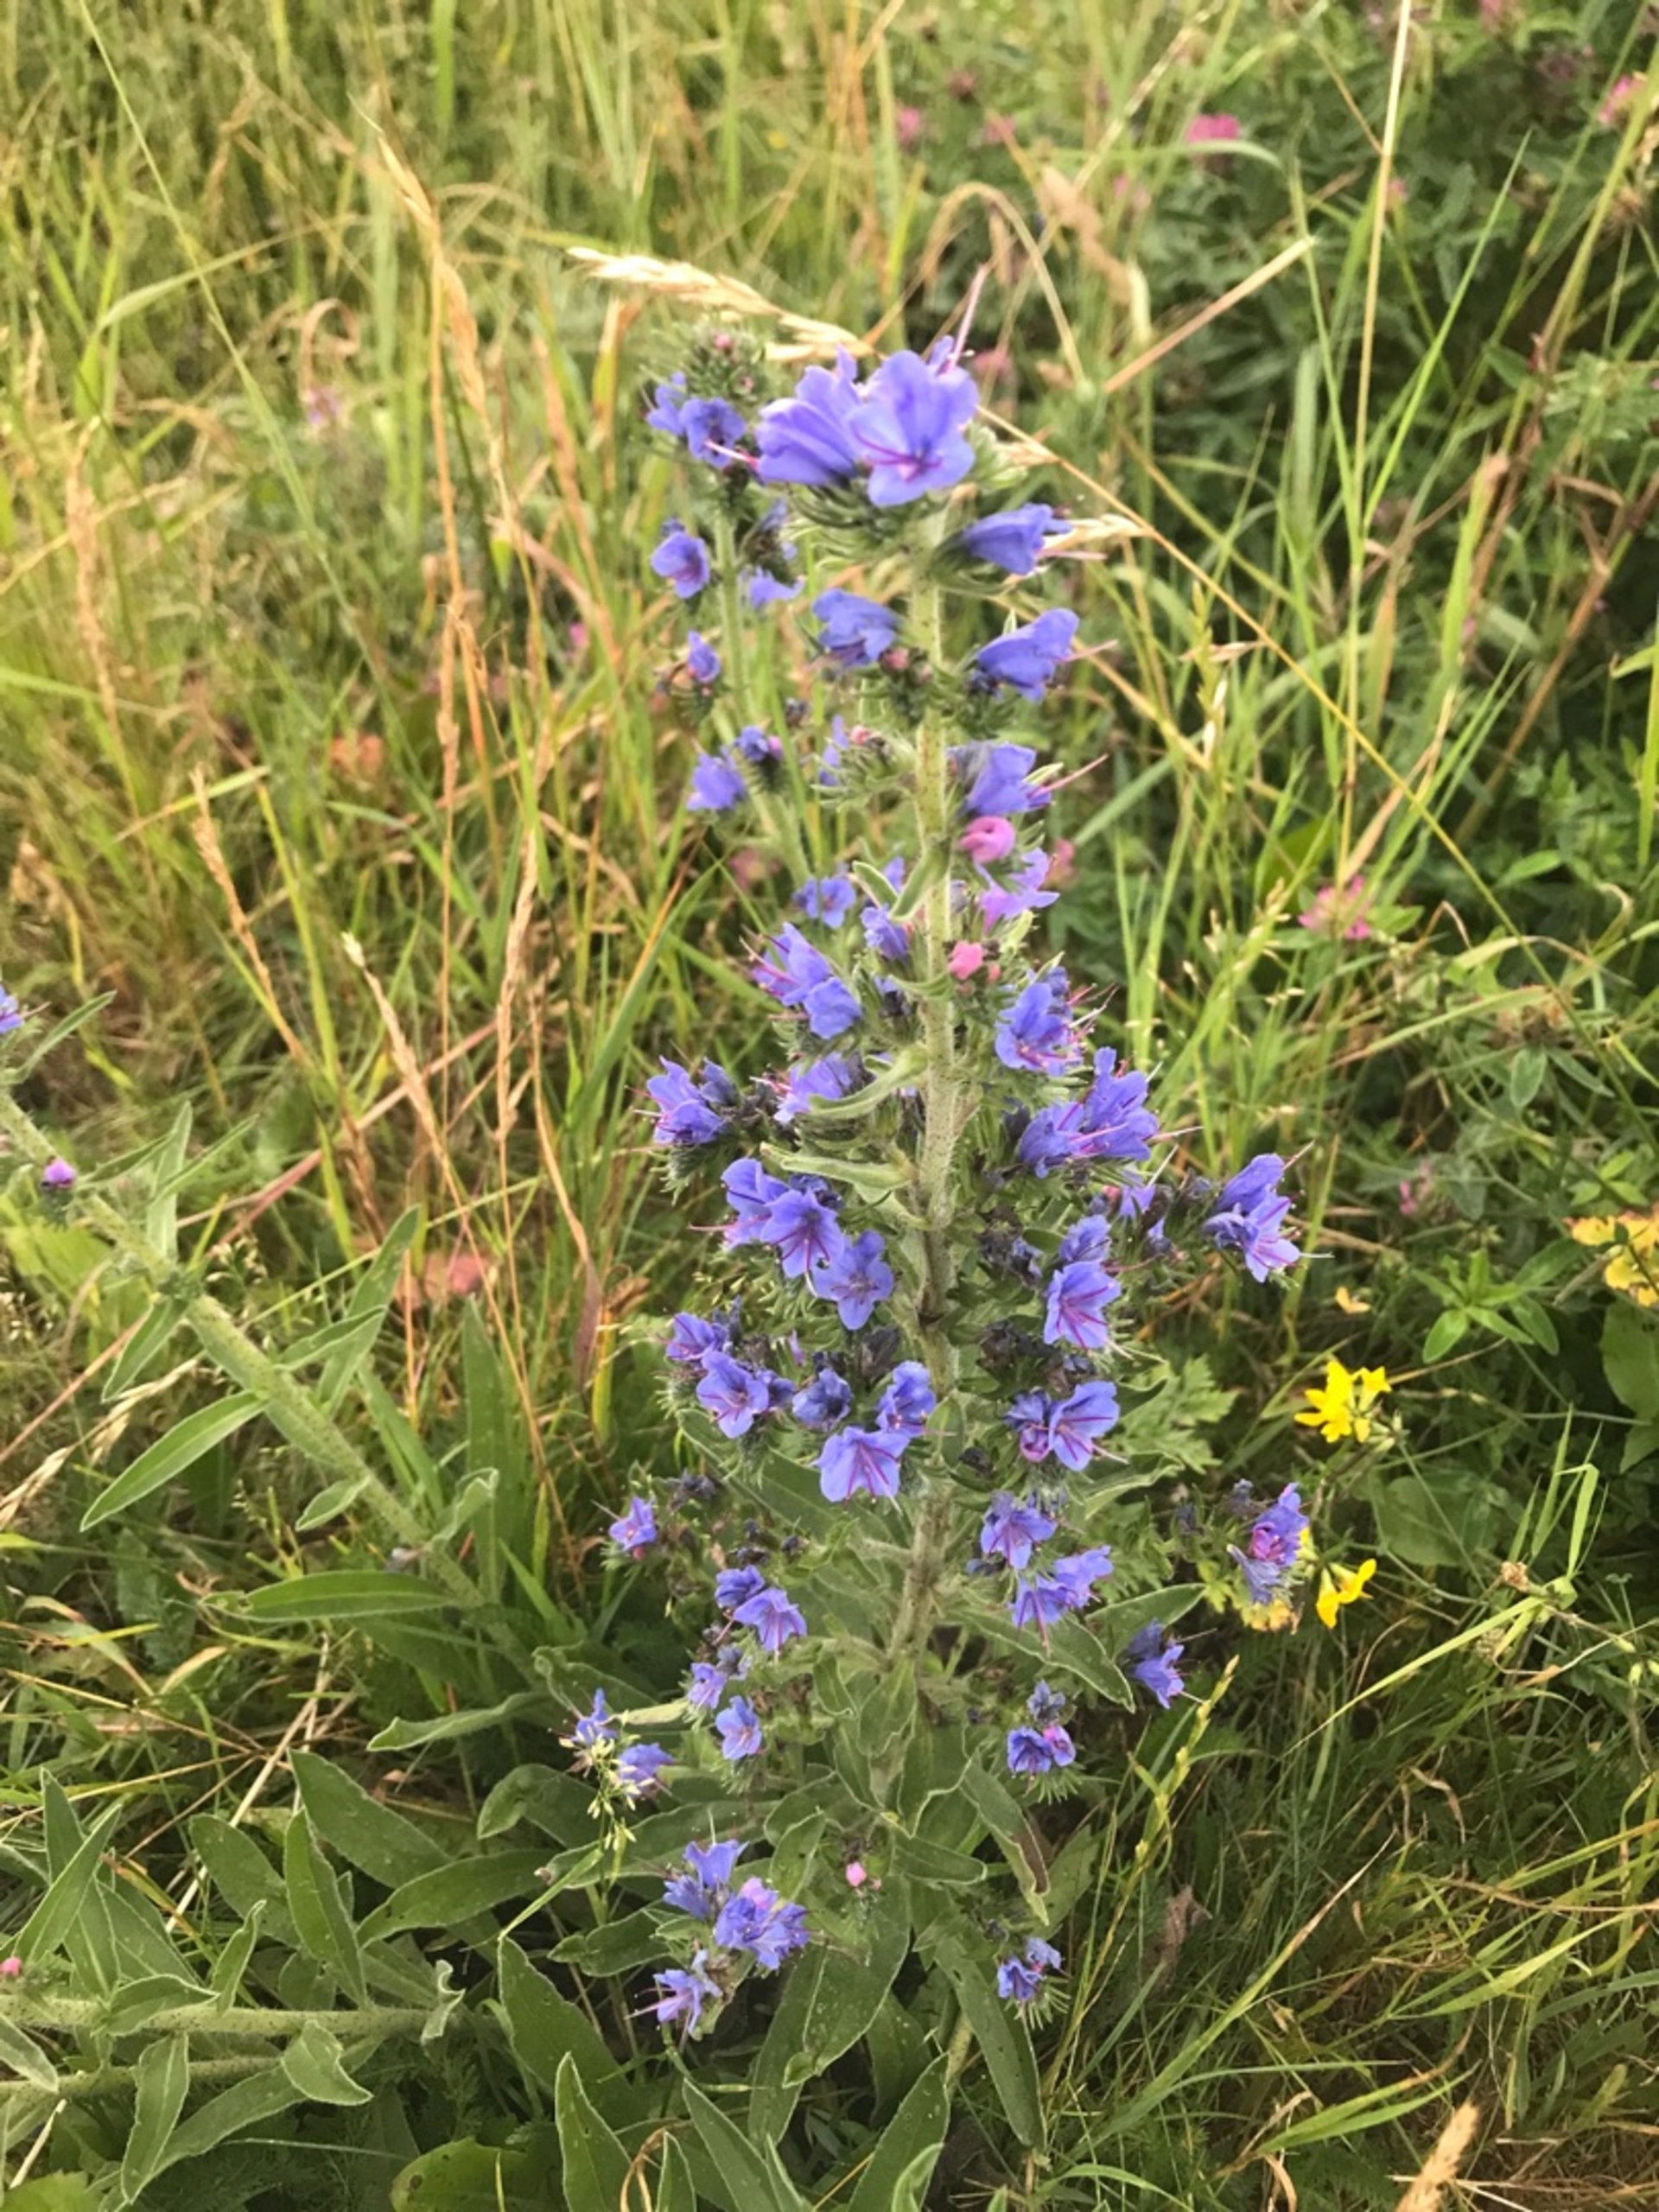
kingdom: Plantae
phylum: Tracheophyta
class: Magnoliopsida
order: Boraginales
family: Boraginaceae
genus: Echium
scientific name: Echium vulgare
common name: Slangehoved
